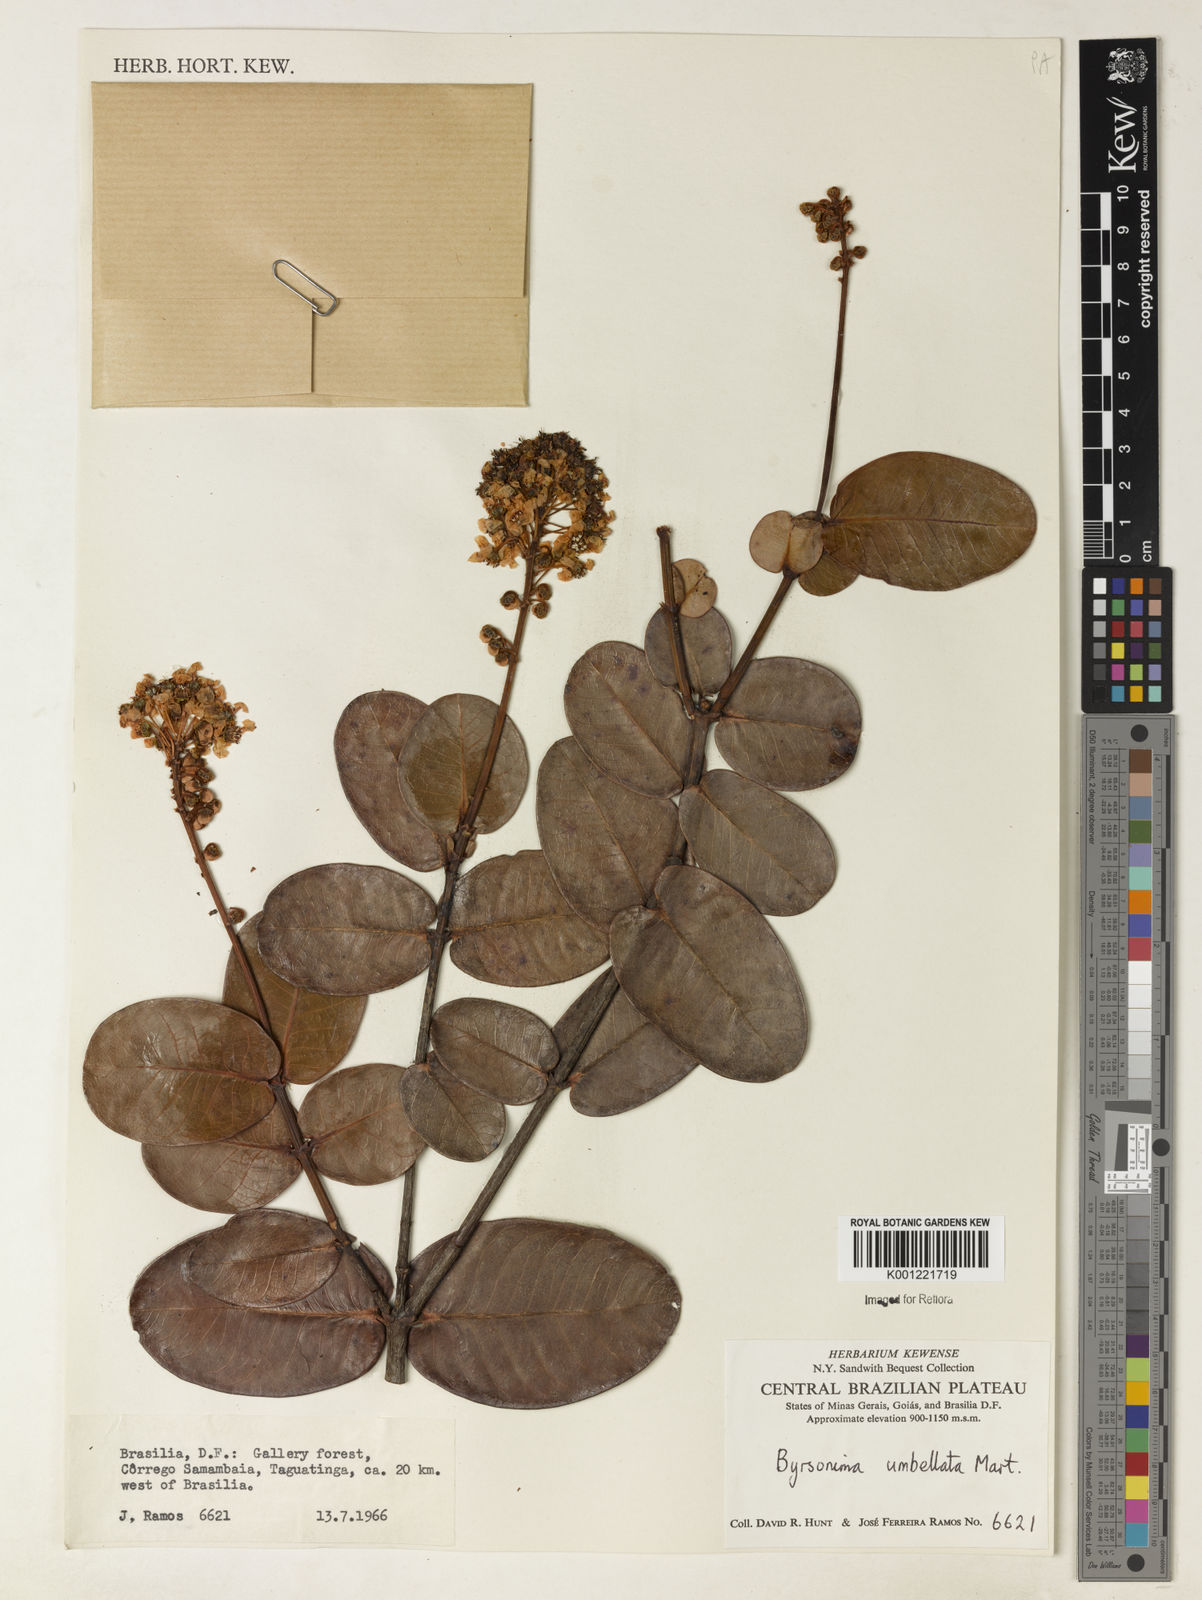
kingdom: Plantae
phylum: Tracheophyta
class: Magnoliopsida
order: Malpighiales
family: Malpighiaceae
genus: Byrsonima
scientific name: Byrsonima umbellata
